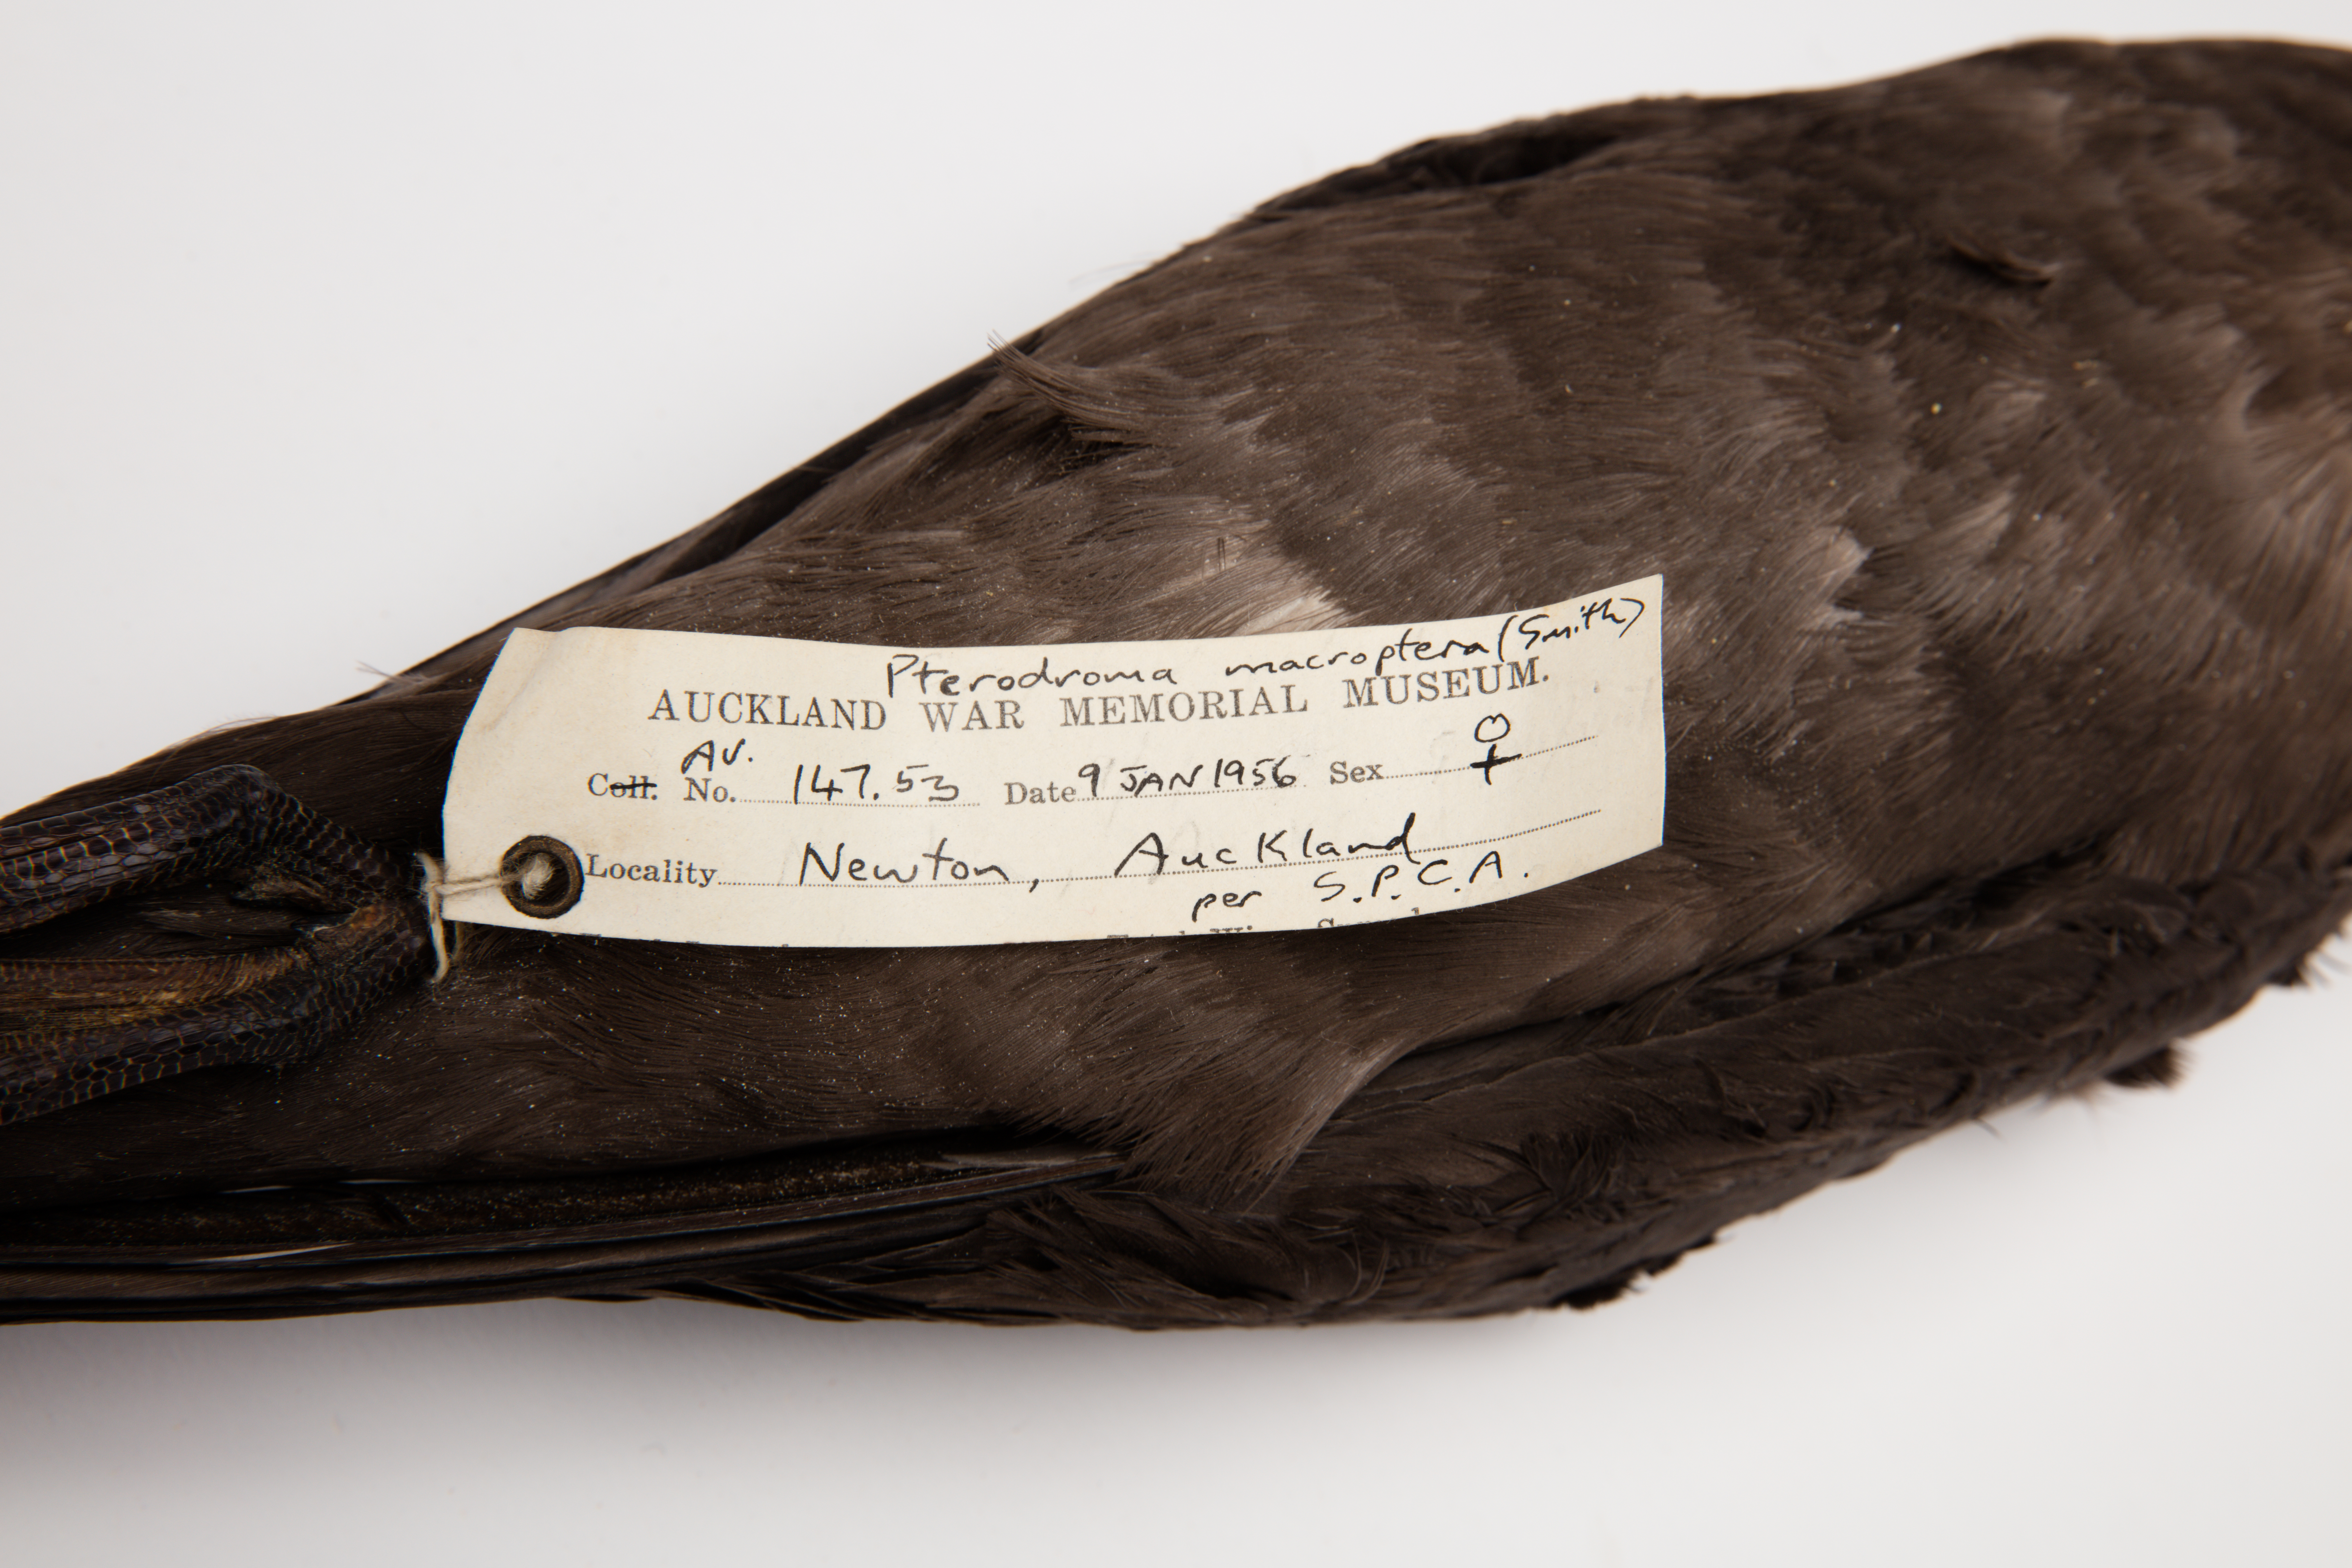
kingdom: Animalia
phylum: Chordata
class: Aves
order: Procellariiformes
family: Procellariidae
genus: Pterodroma
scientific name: Pterodroma macroptera
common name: Great-winged petrel
